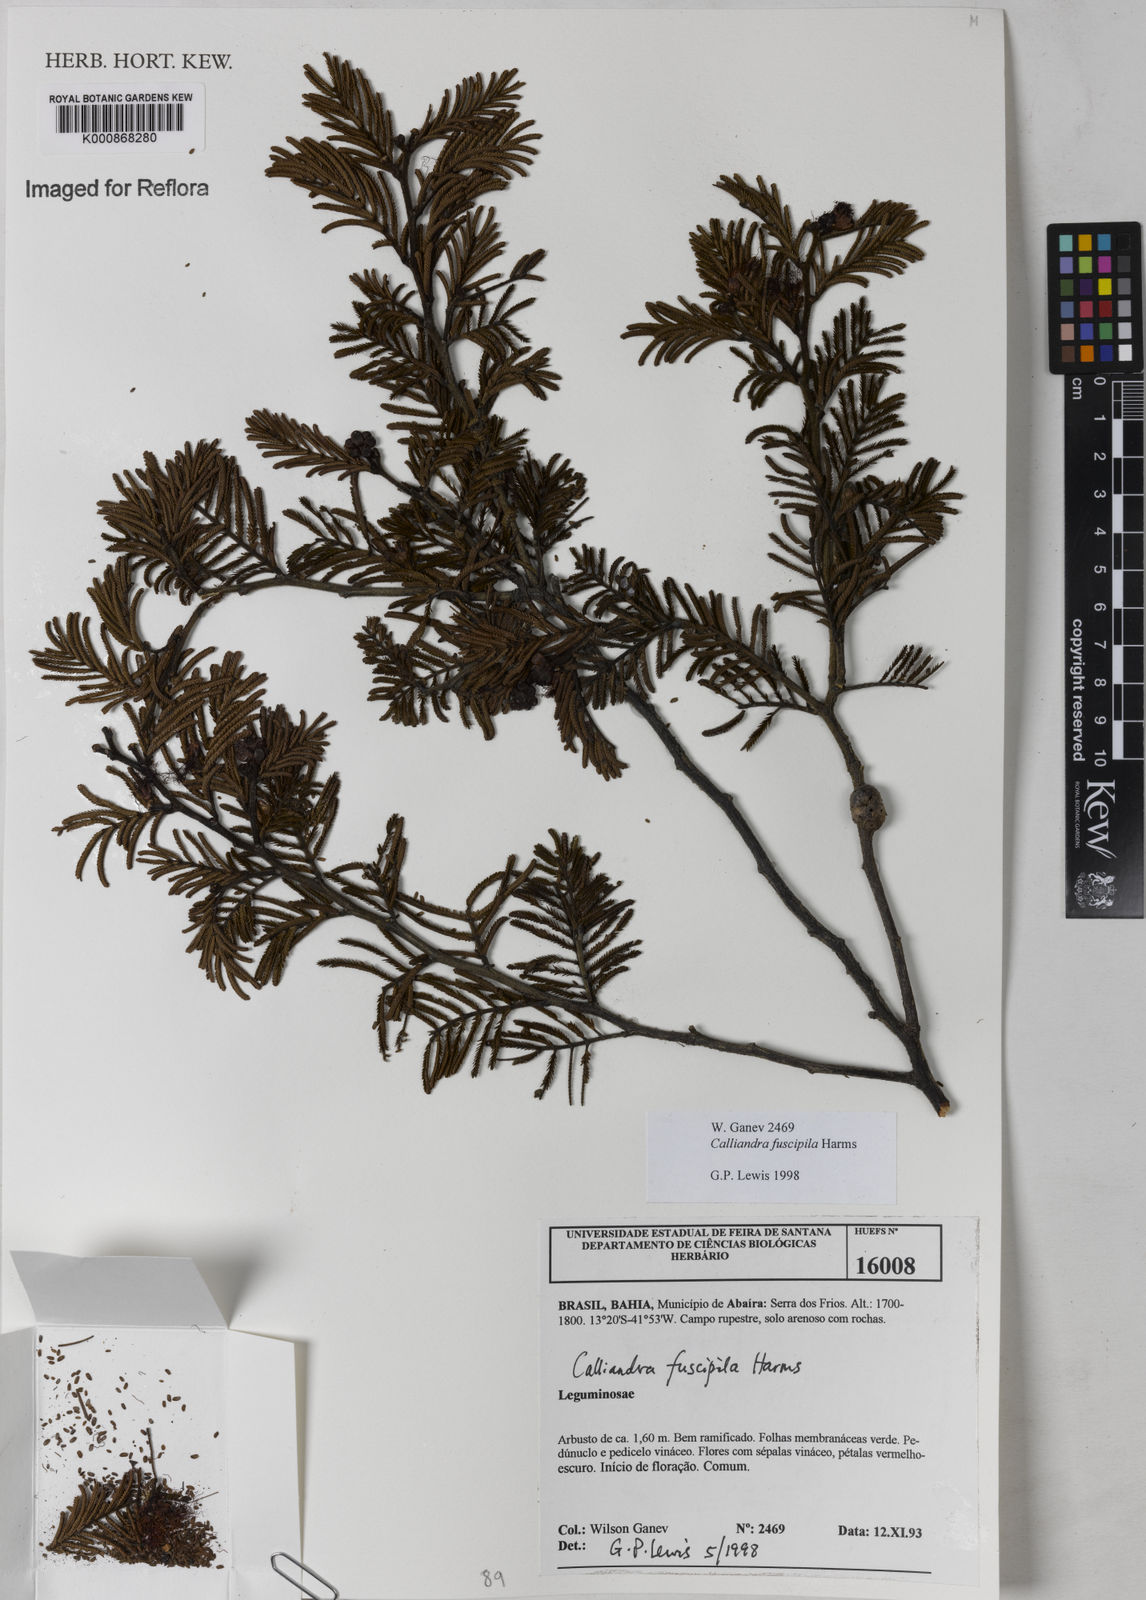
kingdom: Plantae
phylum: Tracheophyta
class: Magnoliopsida
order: Fabales
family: Fabaceae
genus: Calliandra
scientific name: Calliandra fuscipila
